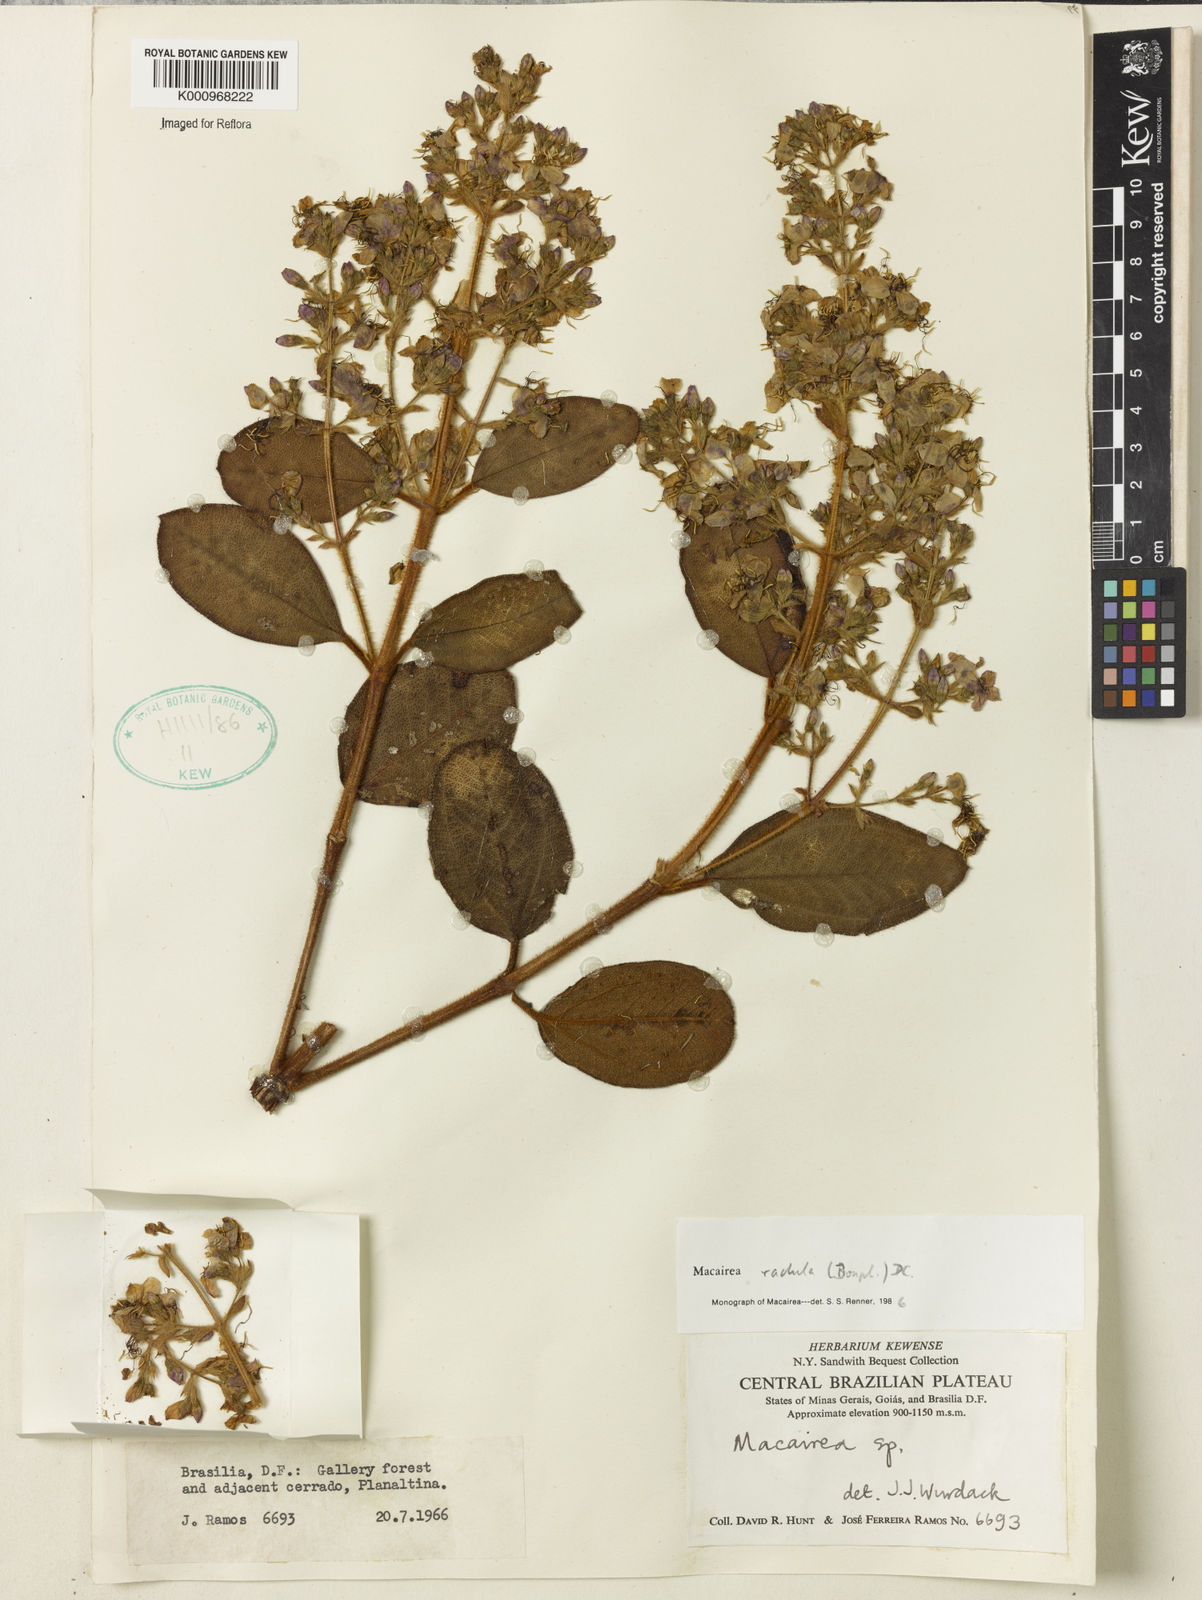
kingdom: Plantae
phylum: Tracheophyta
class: Magnoliopsida
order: Myrtales
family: Melastomataceae
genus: Macairea
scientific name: Macairea radula
